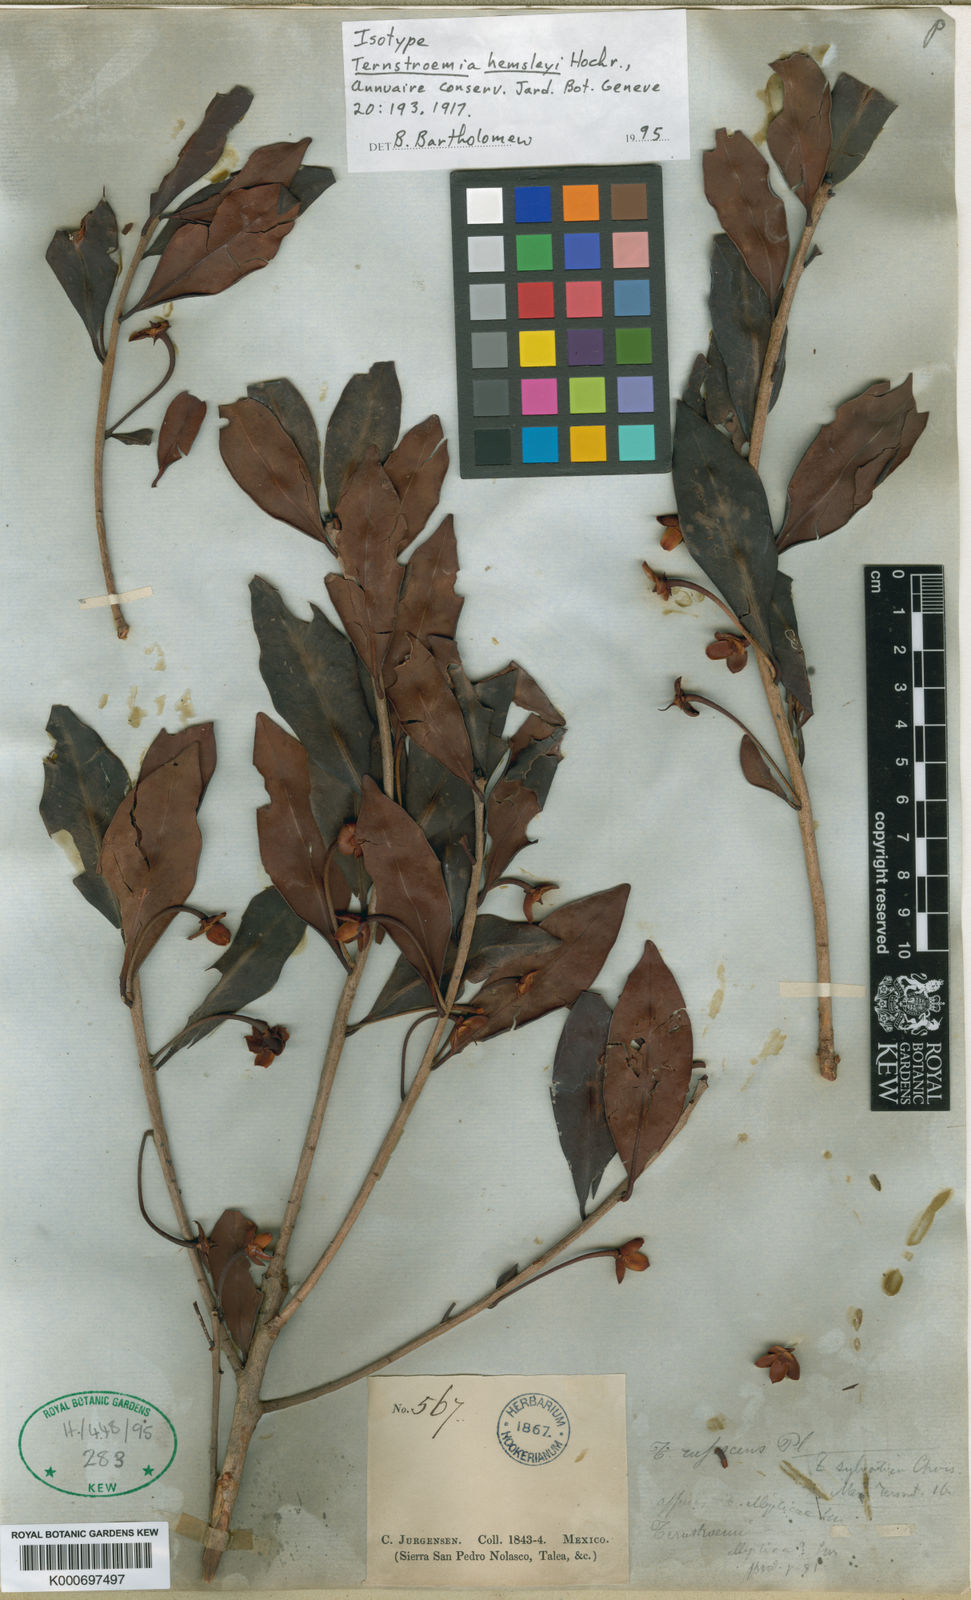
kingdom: Plantae
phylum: Tracheophyta
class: Magnoliopsida
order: Ericales
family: Pentaphylacaceae
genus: Ternstroemia
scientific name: Ternstroemia tepezapote
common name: Copey vera
